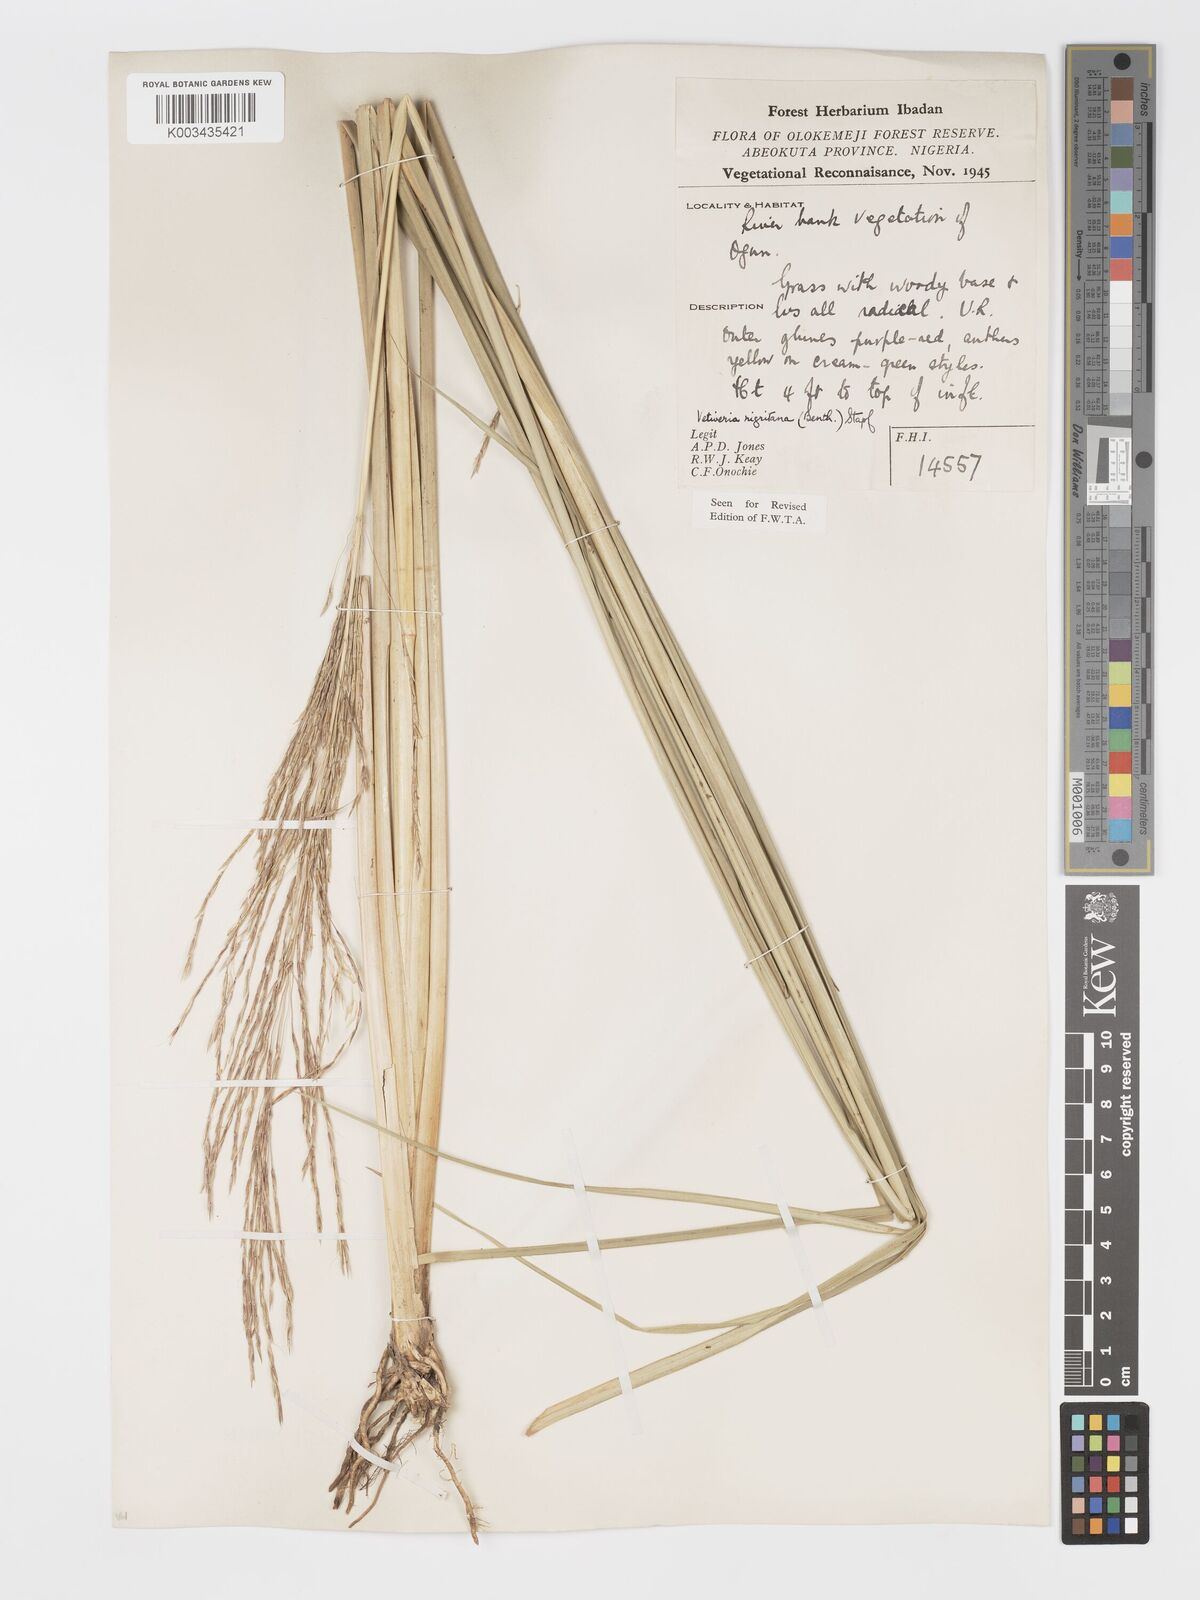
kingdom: Plantae
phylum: Tracheophyta
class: Liliopsida
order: Poales
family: Poaceae
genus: Chrysopogon
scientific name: Chrysopogon nigritanus
